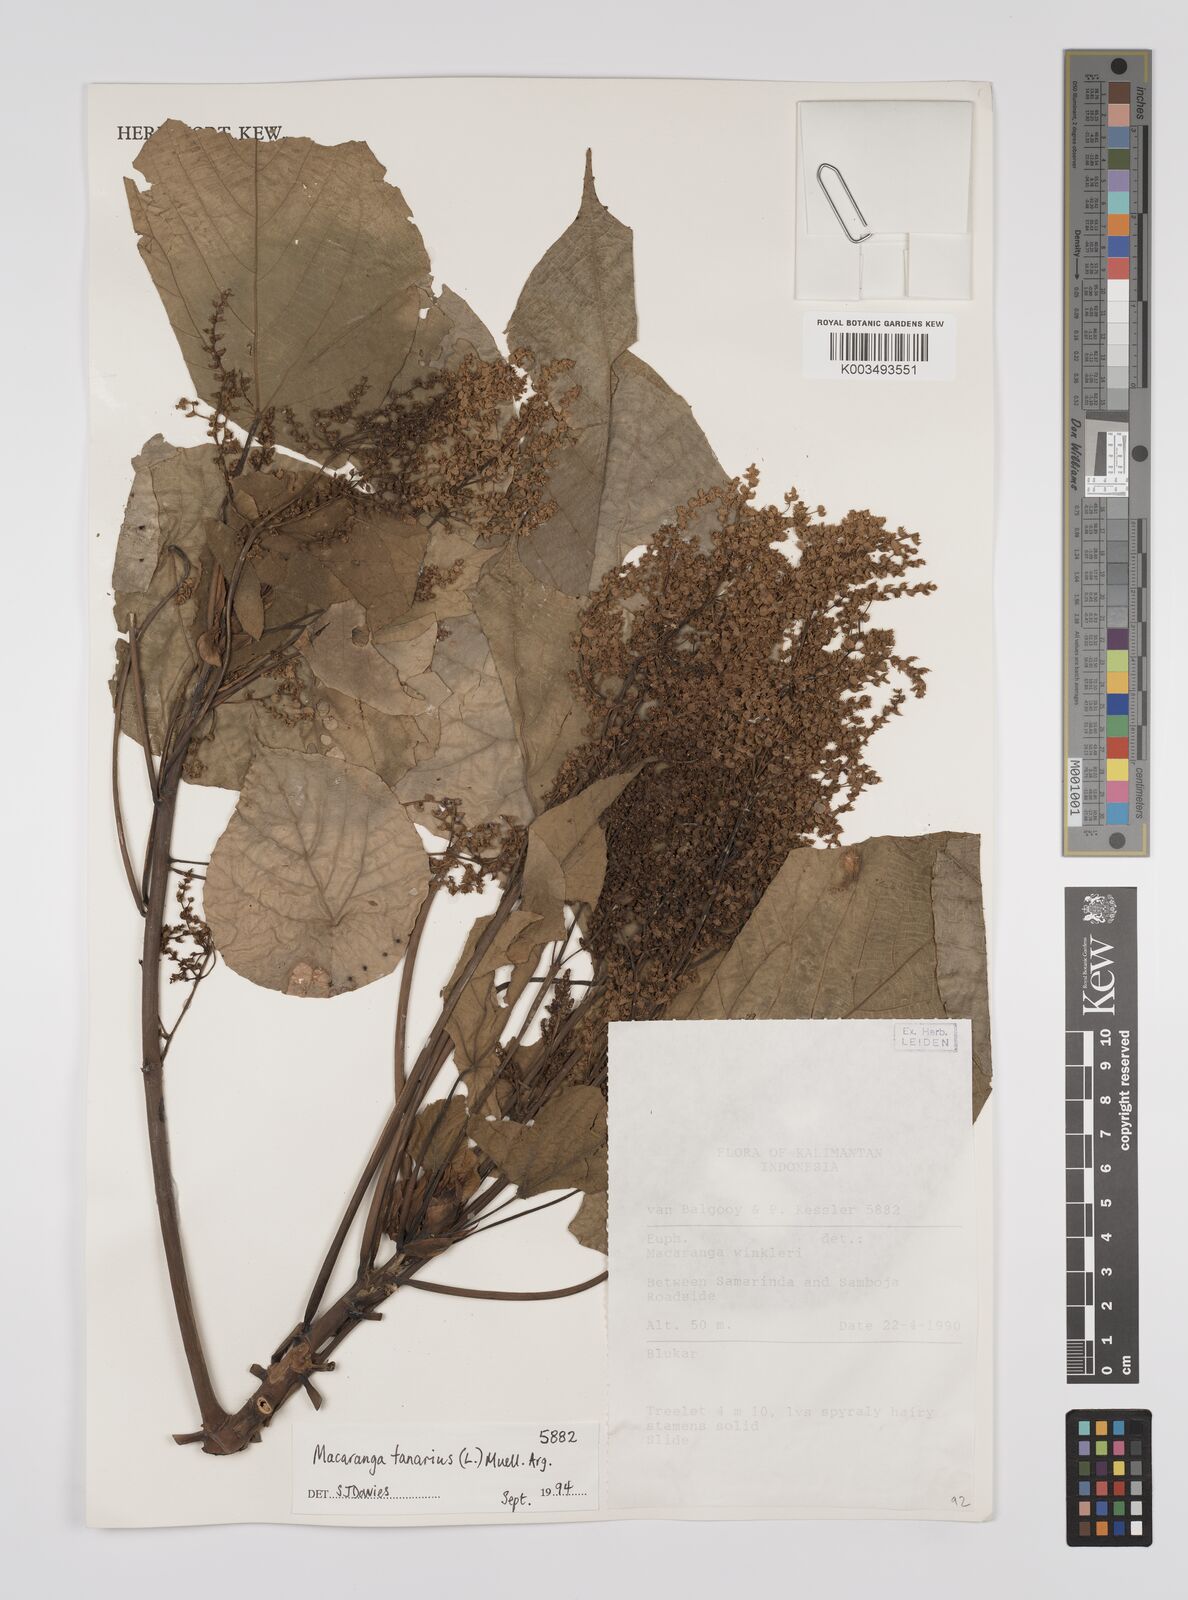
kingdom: Plantae
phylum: Tracheophyta
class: Magnoliopsida
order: Malpighiales
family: Euphorbiaceae
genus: Macaranga
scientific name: Macaranga tanarius
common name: Parasol leaf tree
